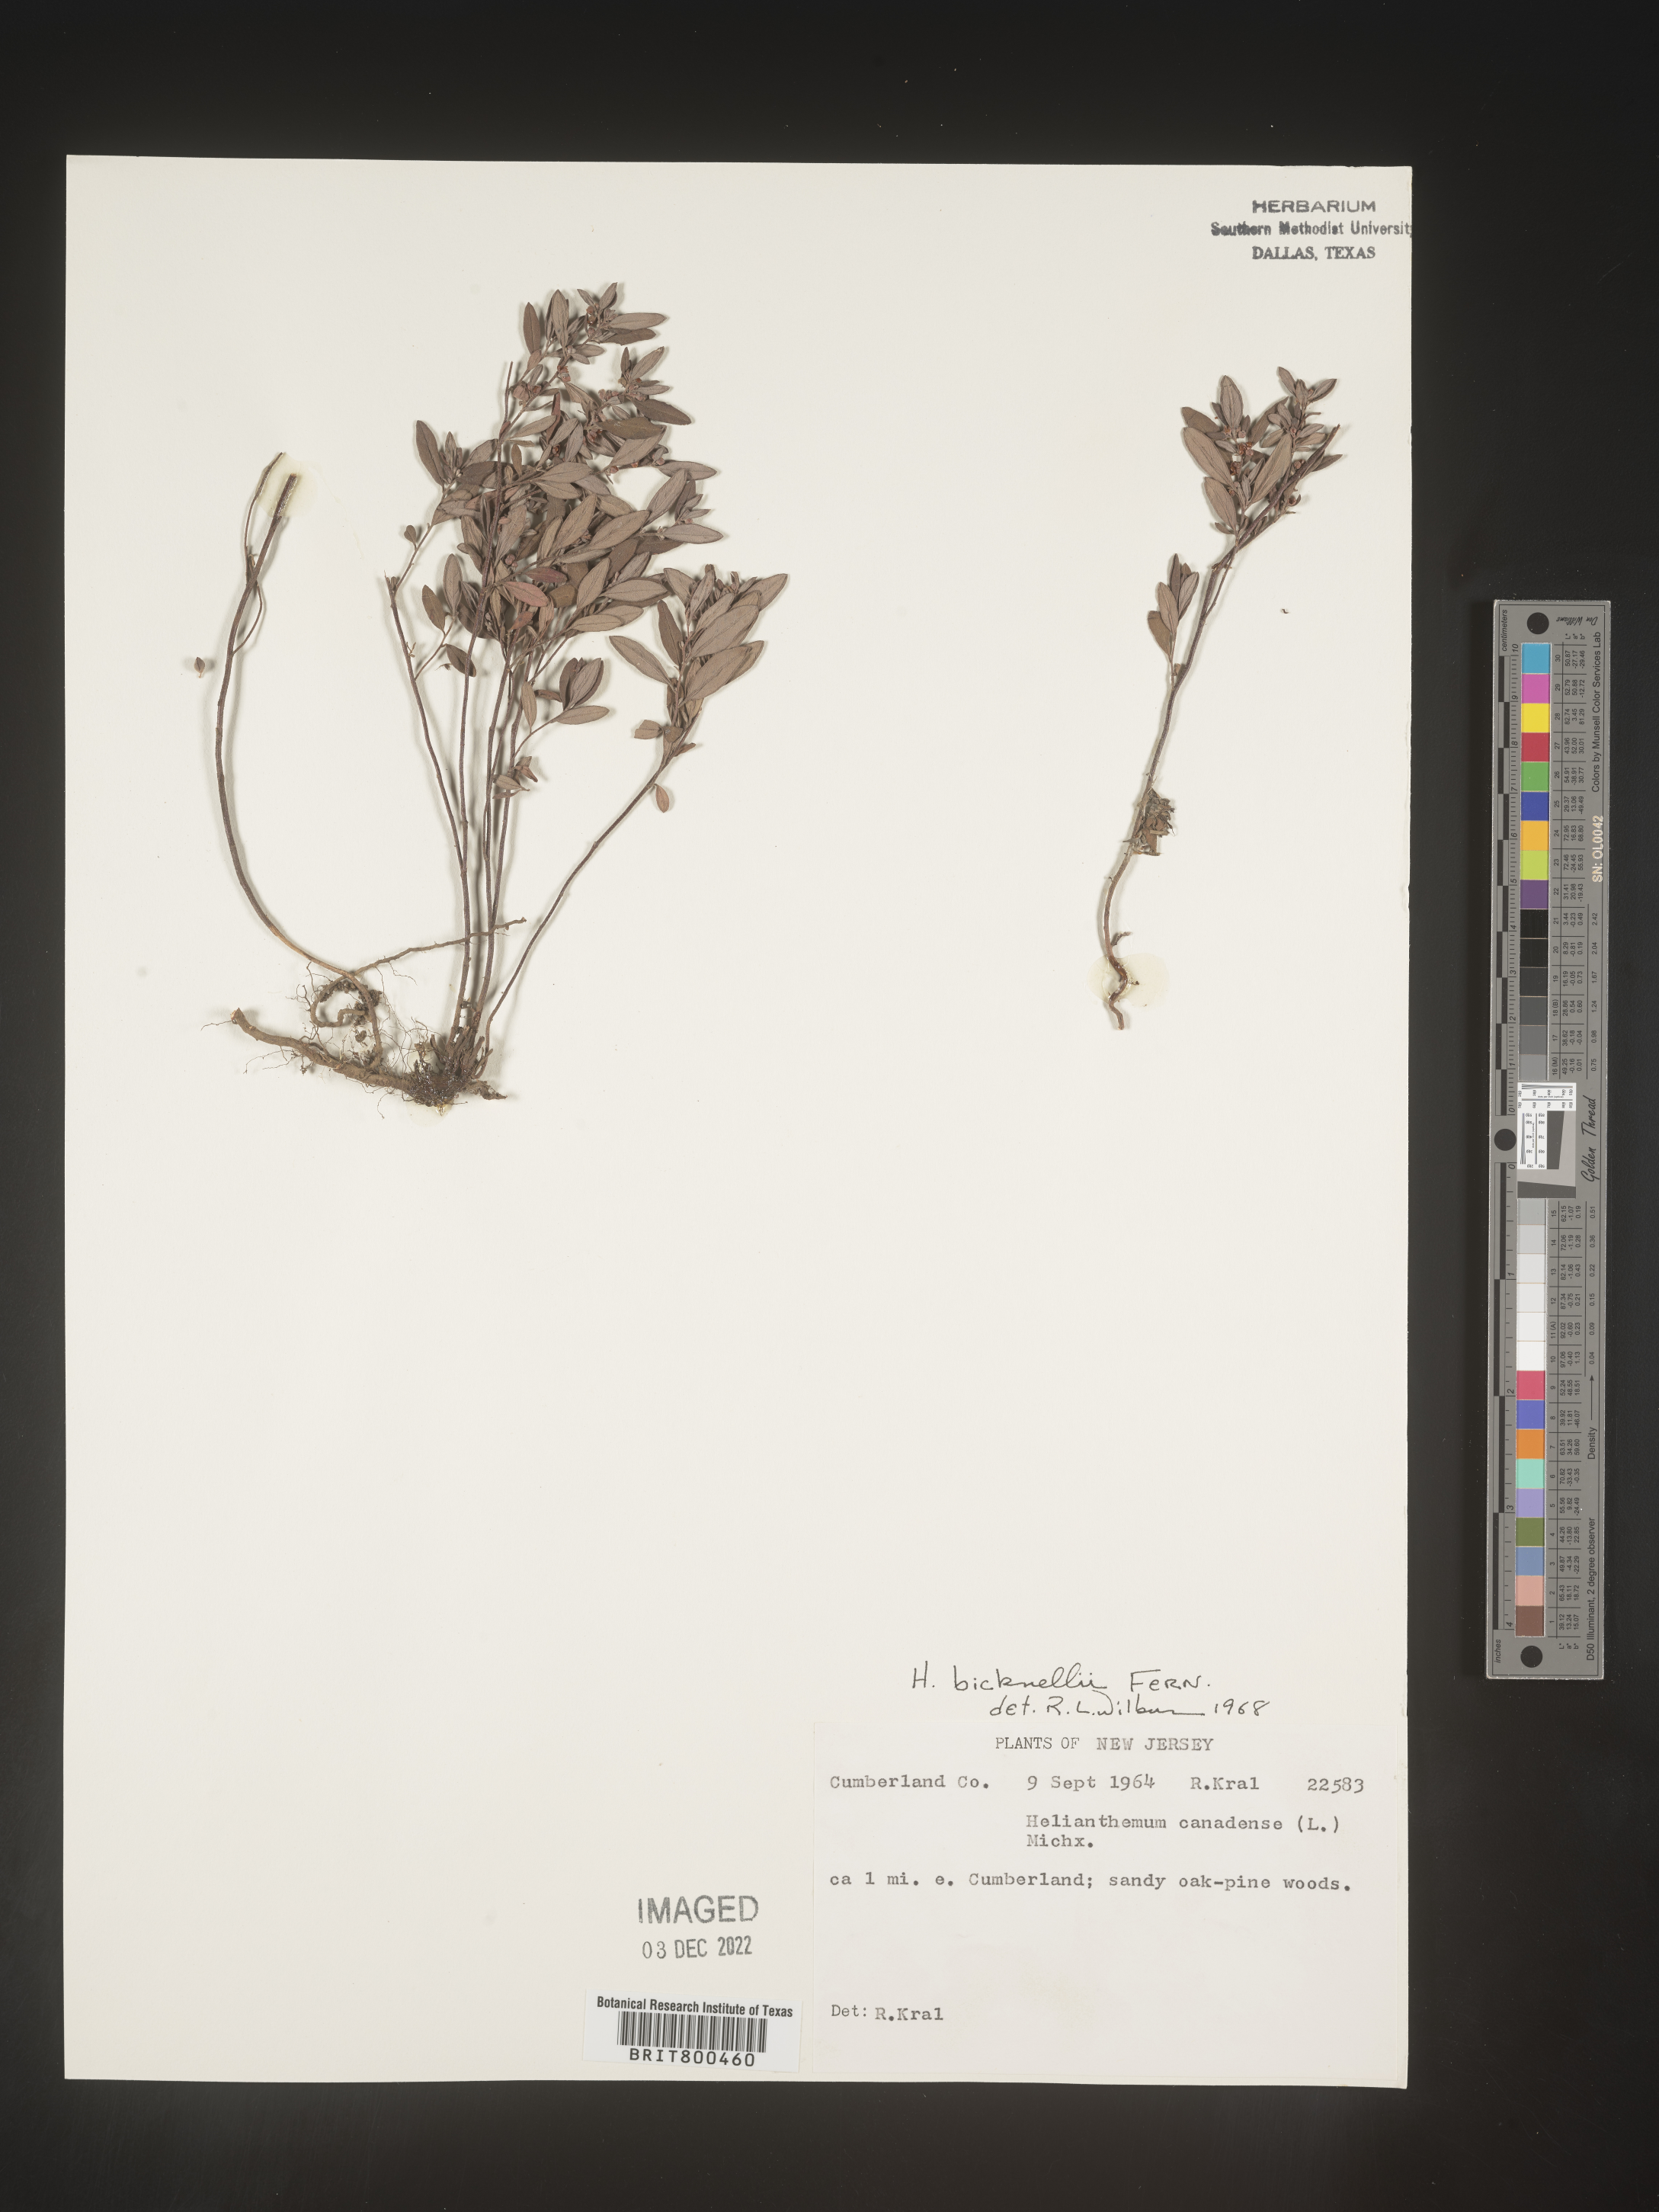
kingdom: Plantae
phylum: Tracheophyta
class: Magnoliopsida
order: Malvales
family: Cistaceae
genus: Helianthemum
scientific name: Helianthemum
